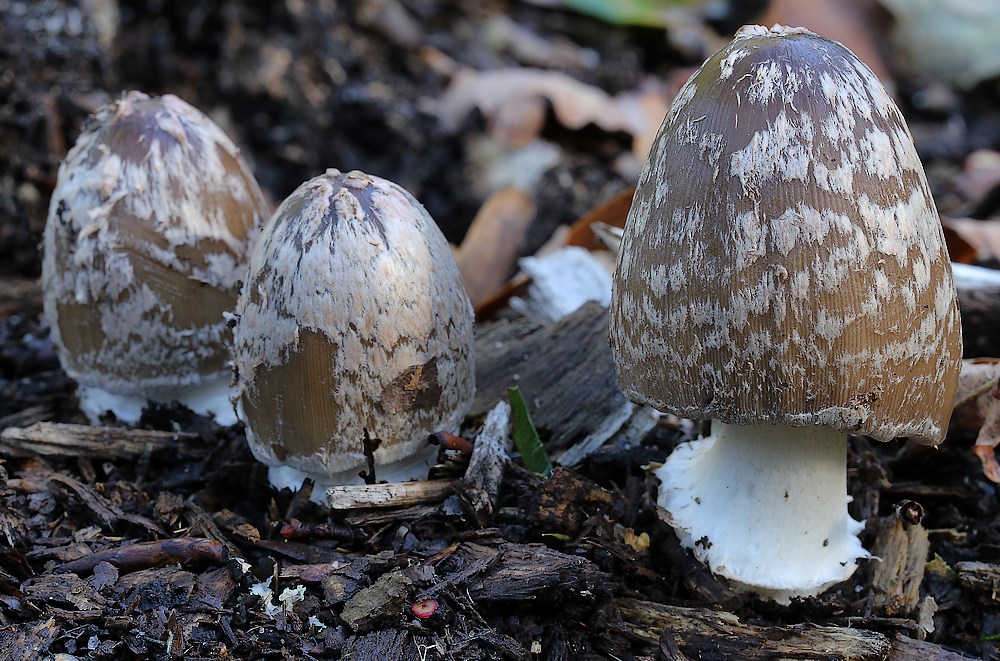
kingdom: Fungi
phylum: Basidiomycota
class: Agaricomycetes
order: Agaricales
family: Psathyrellaceae
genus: Coprinopsis
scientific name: Coprinopsis picacea
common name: skade-blækhat
